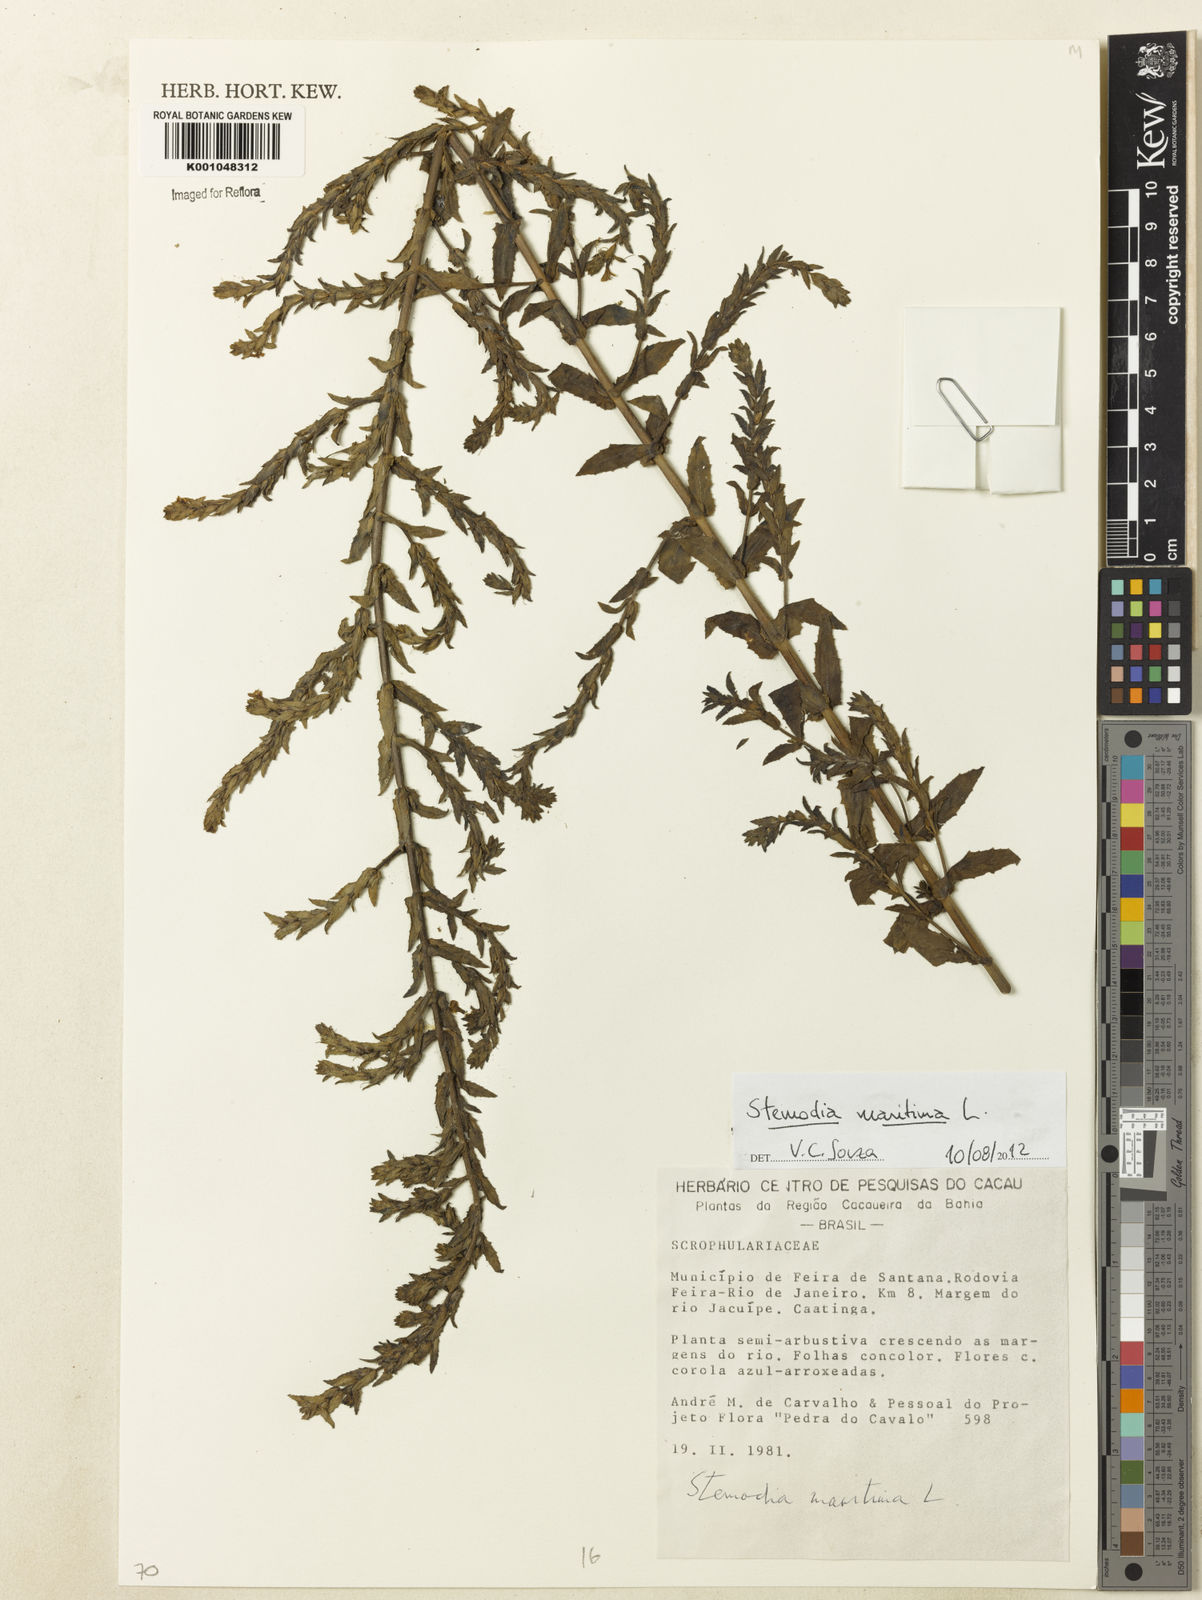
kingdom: Plantae
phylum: Tracheophyta
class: Magnoliopsida
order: Lamiales
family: Plantaginaceae
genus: Stemodia
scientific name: Stemodia maritima
